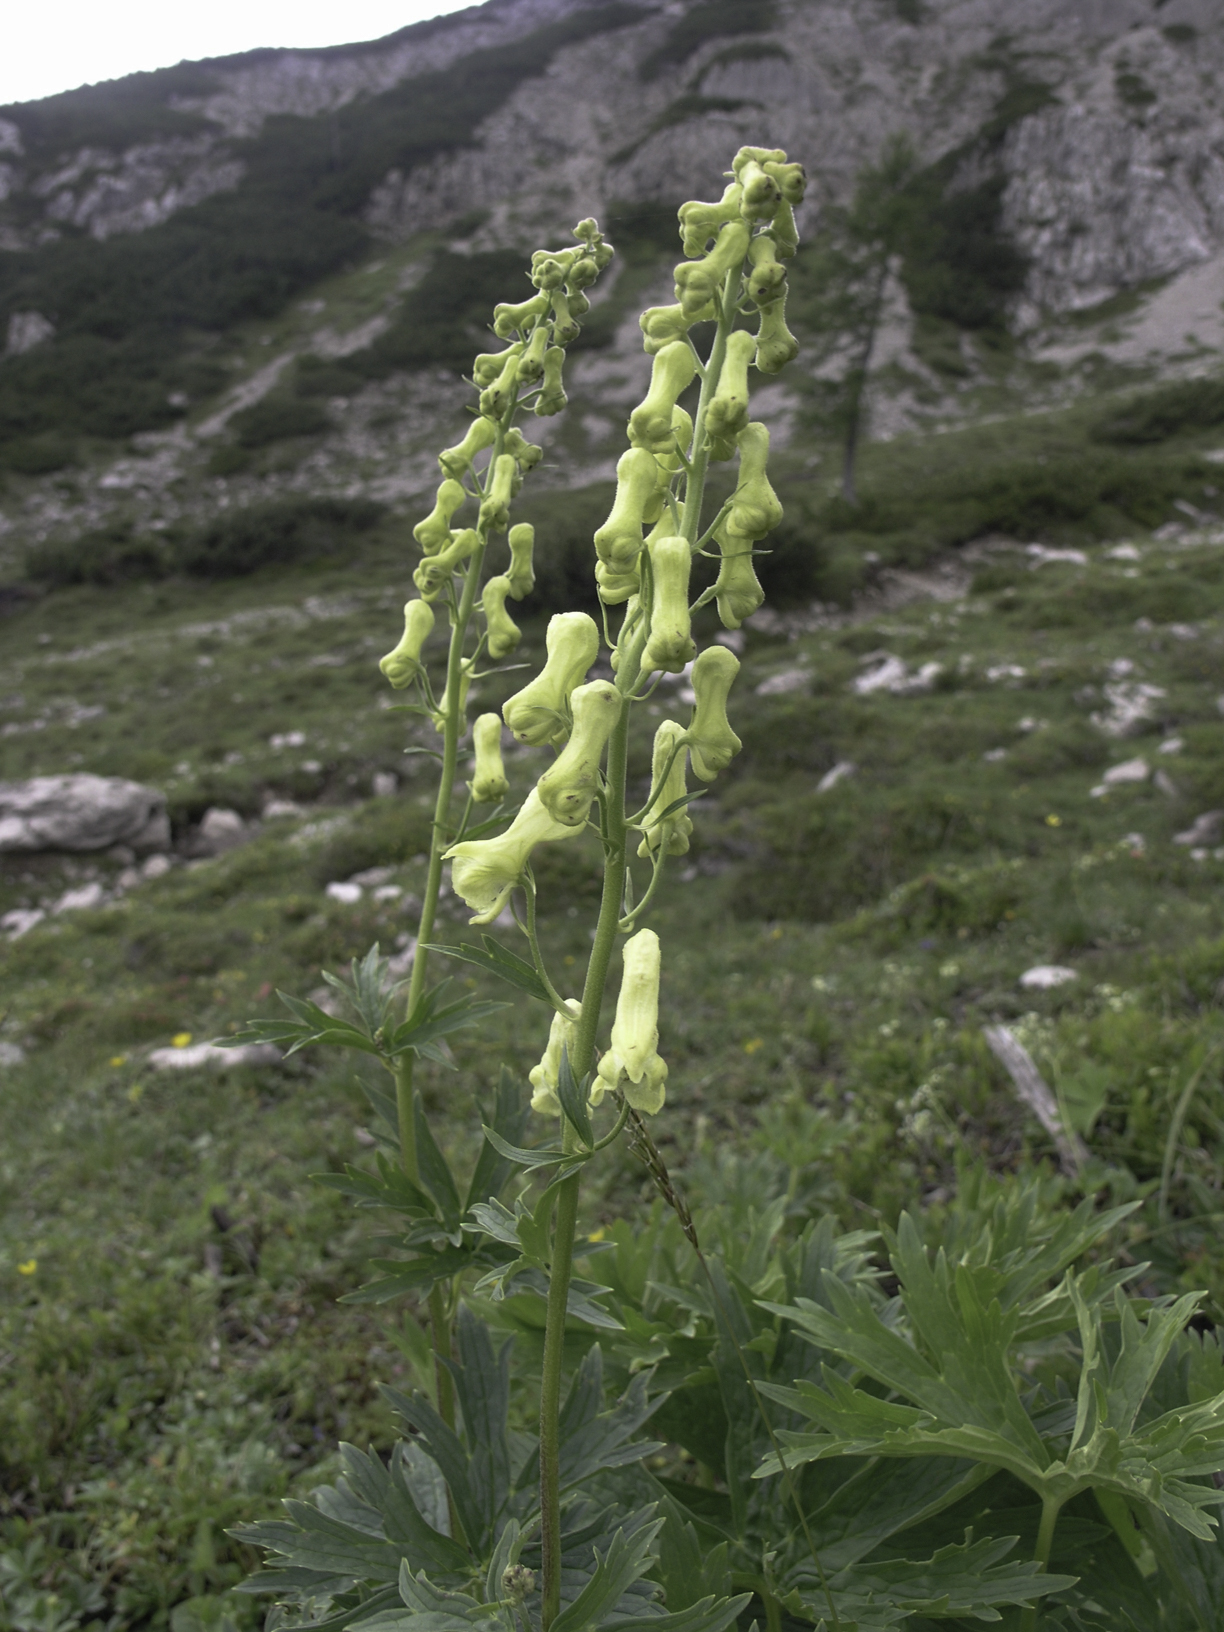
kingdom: Plantae
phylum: Tracheophyta
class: Magnoliopsida
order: Ranunculales
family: Ranunculaceae
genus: Aconitum
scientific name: Aconitum lycoctonum
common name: Wolf's-bane
